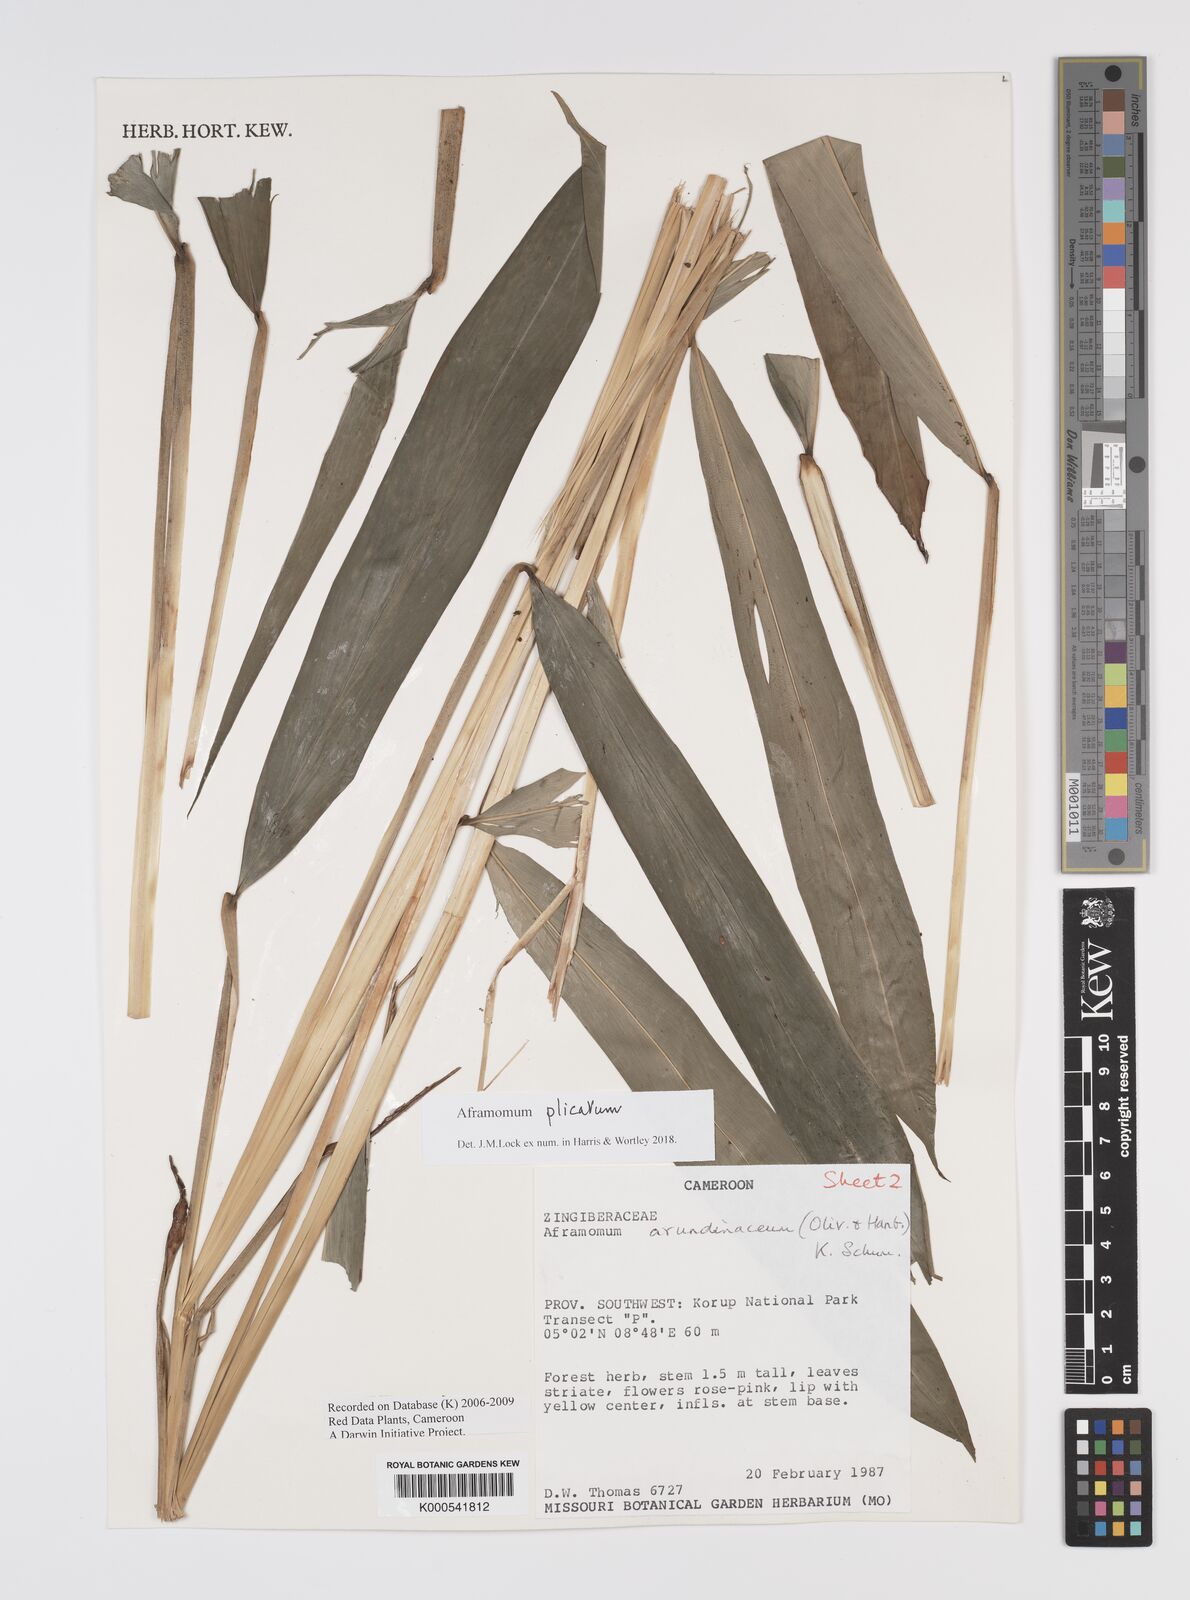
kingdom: Plantae
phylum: Tracheophyta
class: Liliopsida
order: Zingiberales
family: Zingiberaceae
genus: Aframomum
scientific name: Aframomum arundinaceum
